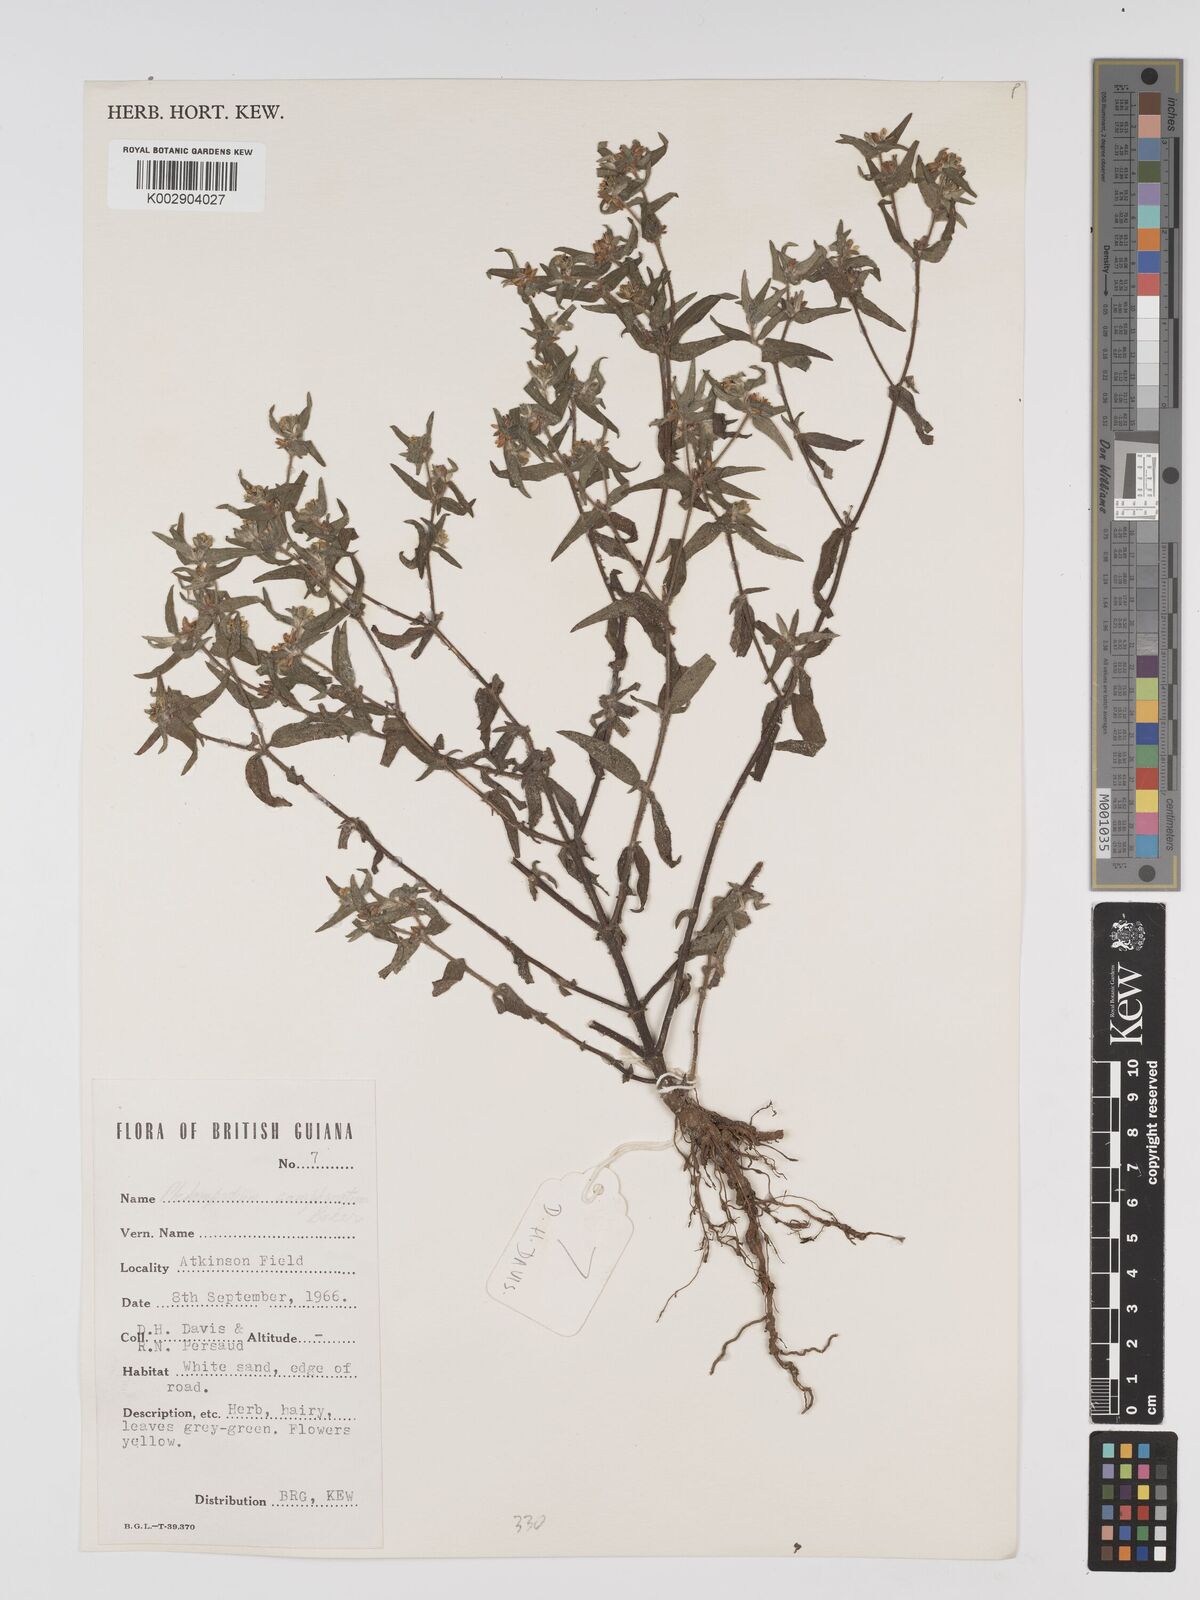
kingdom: Plantae
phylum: Tracheophyta
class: Magnoliopsida
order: Asterales
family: Asteraceae
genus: Unxia
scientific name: Unxia camphorata
